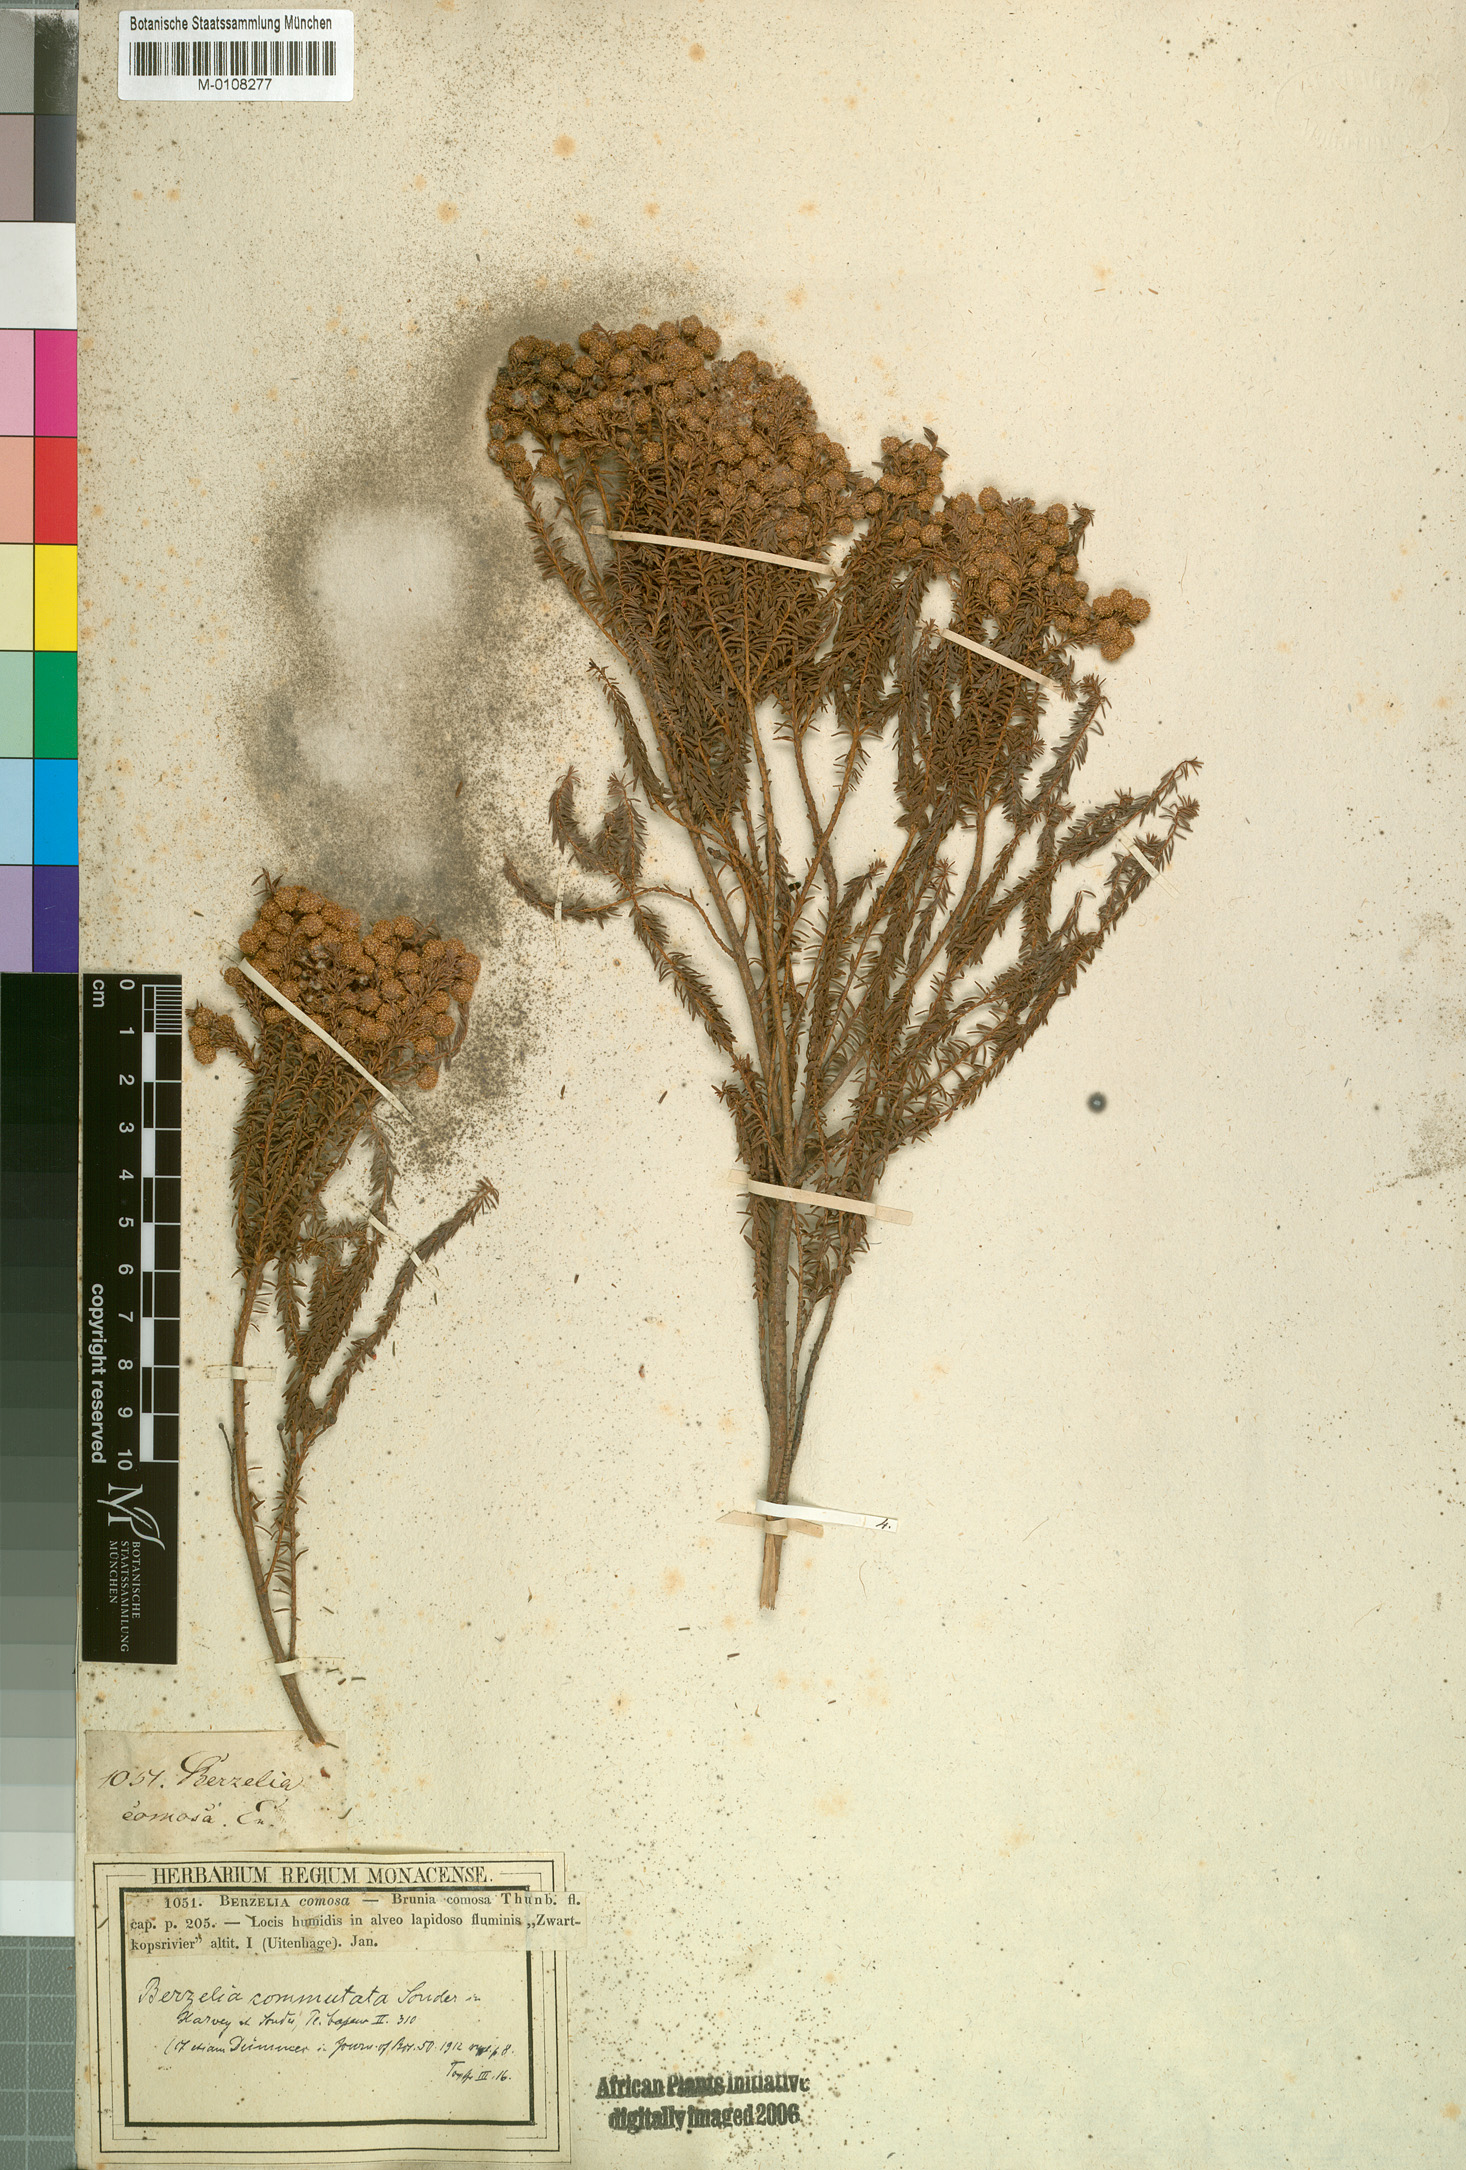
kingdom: Plantae
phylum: Tracheophyta
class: Magnoliopsida
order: Bruniales
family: Bruniaceae
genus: Berzelia
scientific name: Berzelia commutata
